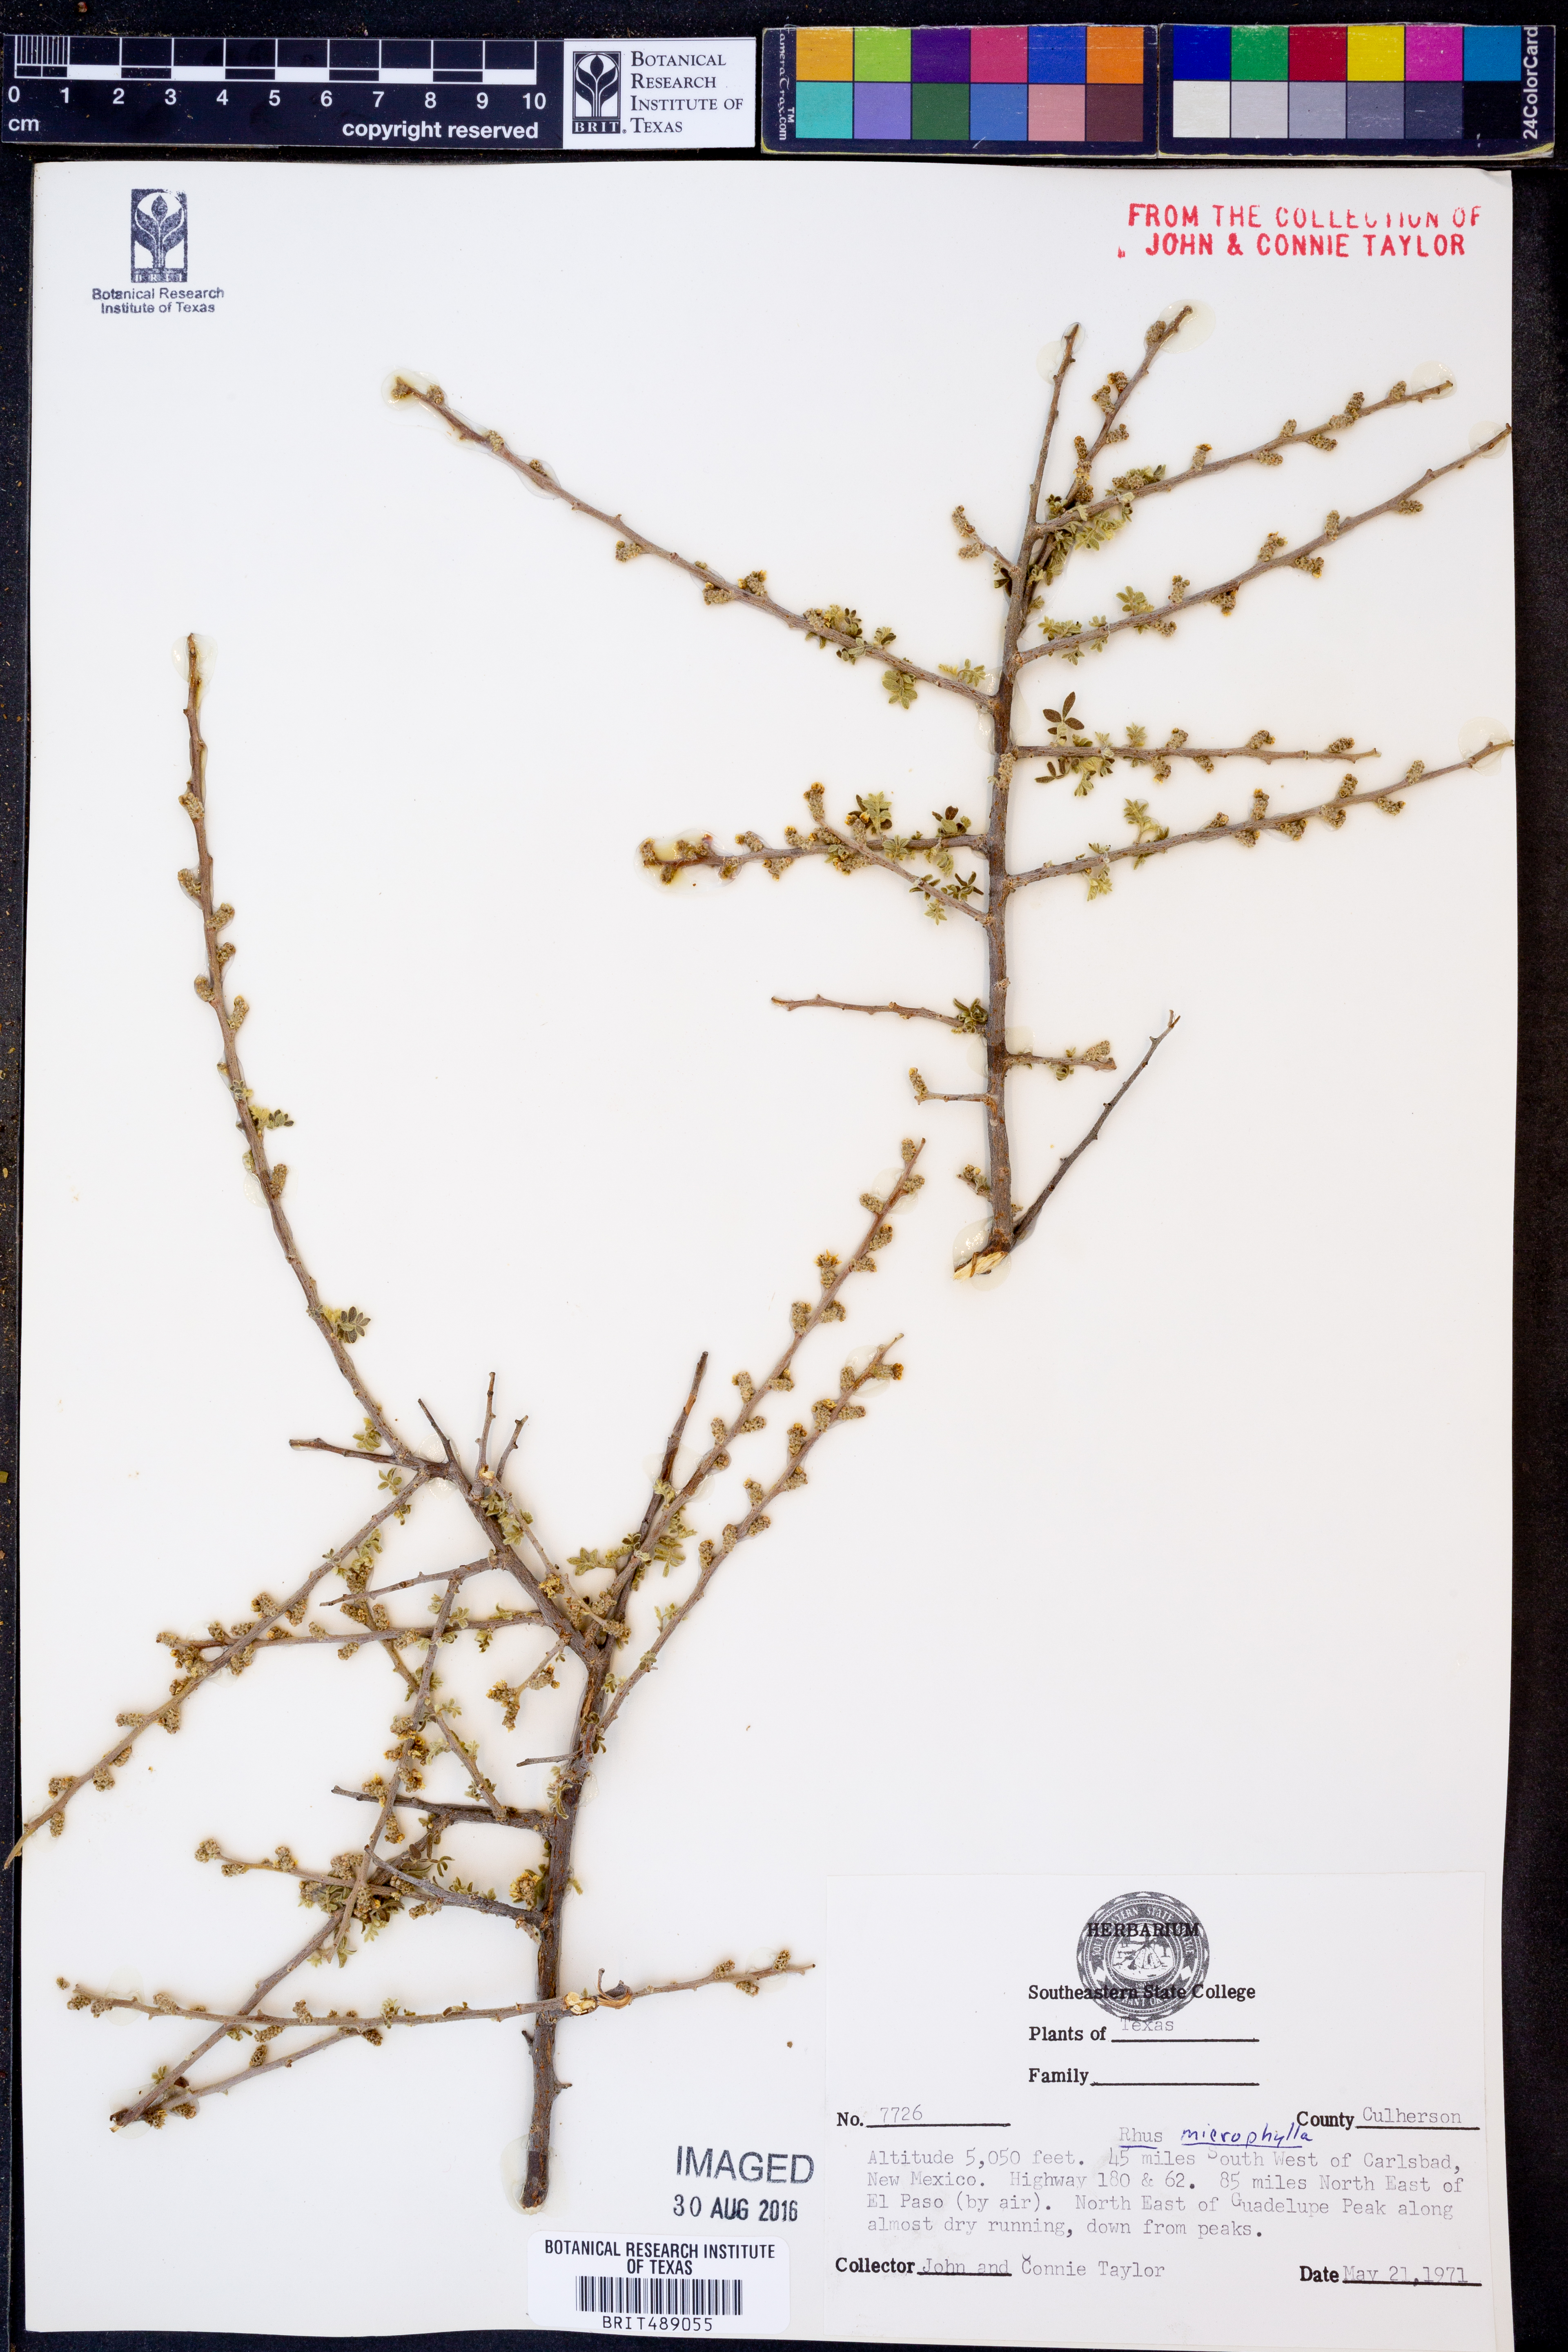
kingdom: Plantae
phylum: Tracheophyta
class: Magnoliopsida
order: Sapindales
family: Anacardiaceae
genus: Rhus
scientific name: Rhus microphylla
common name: Desert sumac
